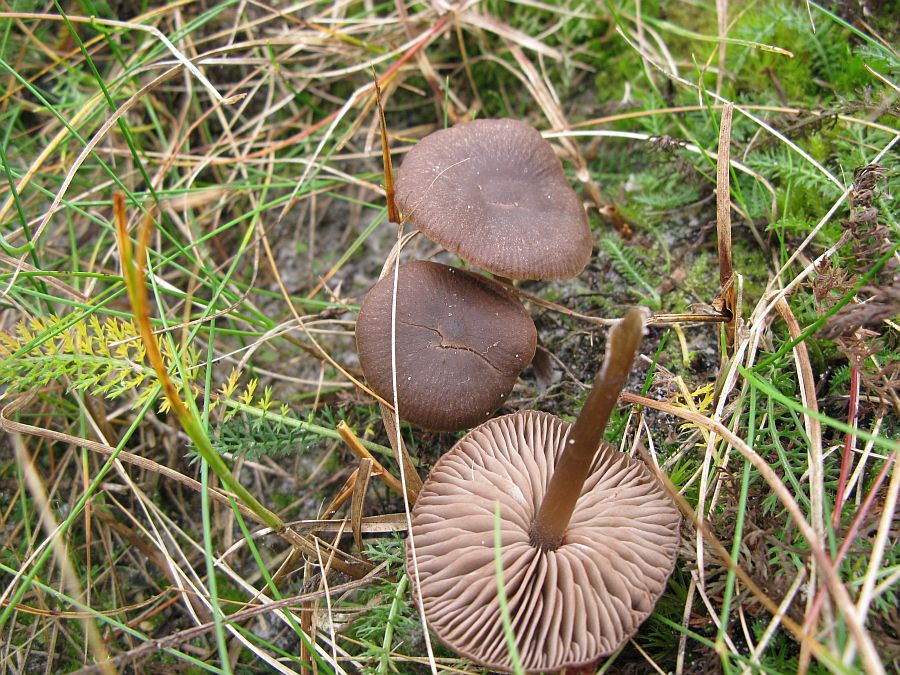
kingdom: Fungi
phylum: Basidiomycota
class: Agaricomycetes
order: Agaricales
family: Entolomataceae
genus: Entoloma
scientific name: Entoloma sericeum
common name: silkeglinsende rødblad
